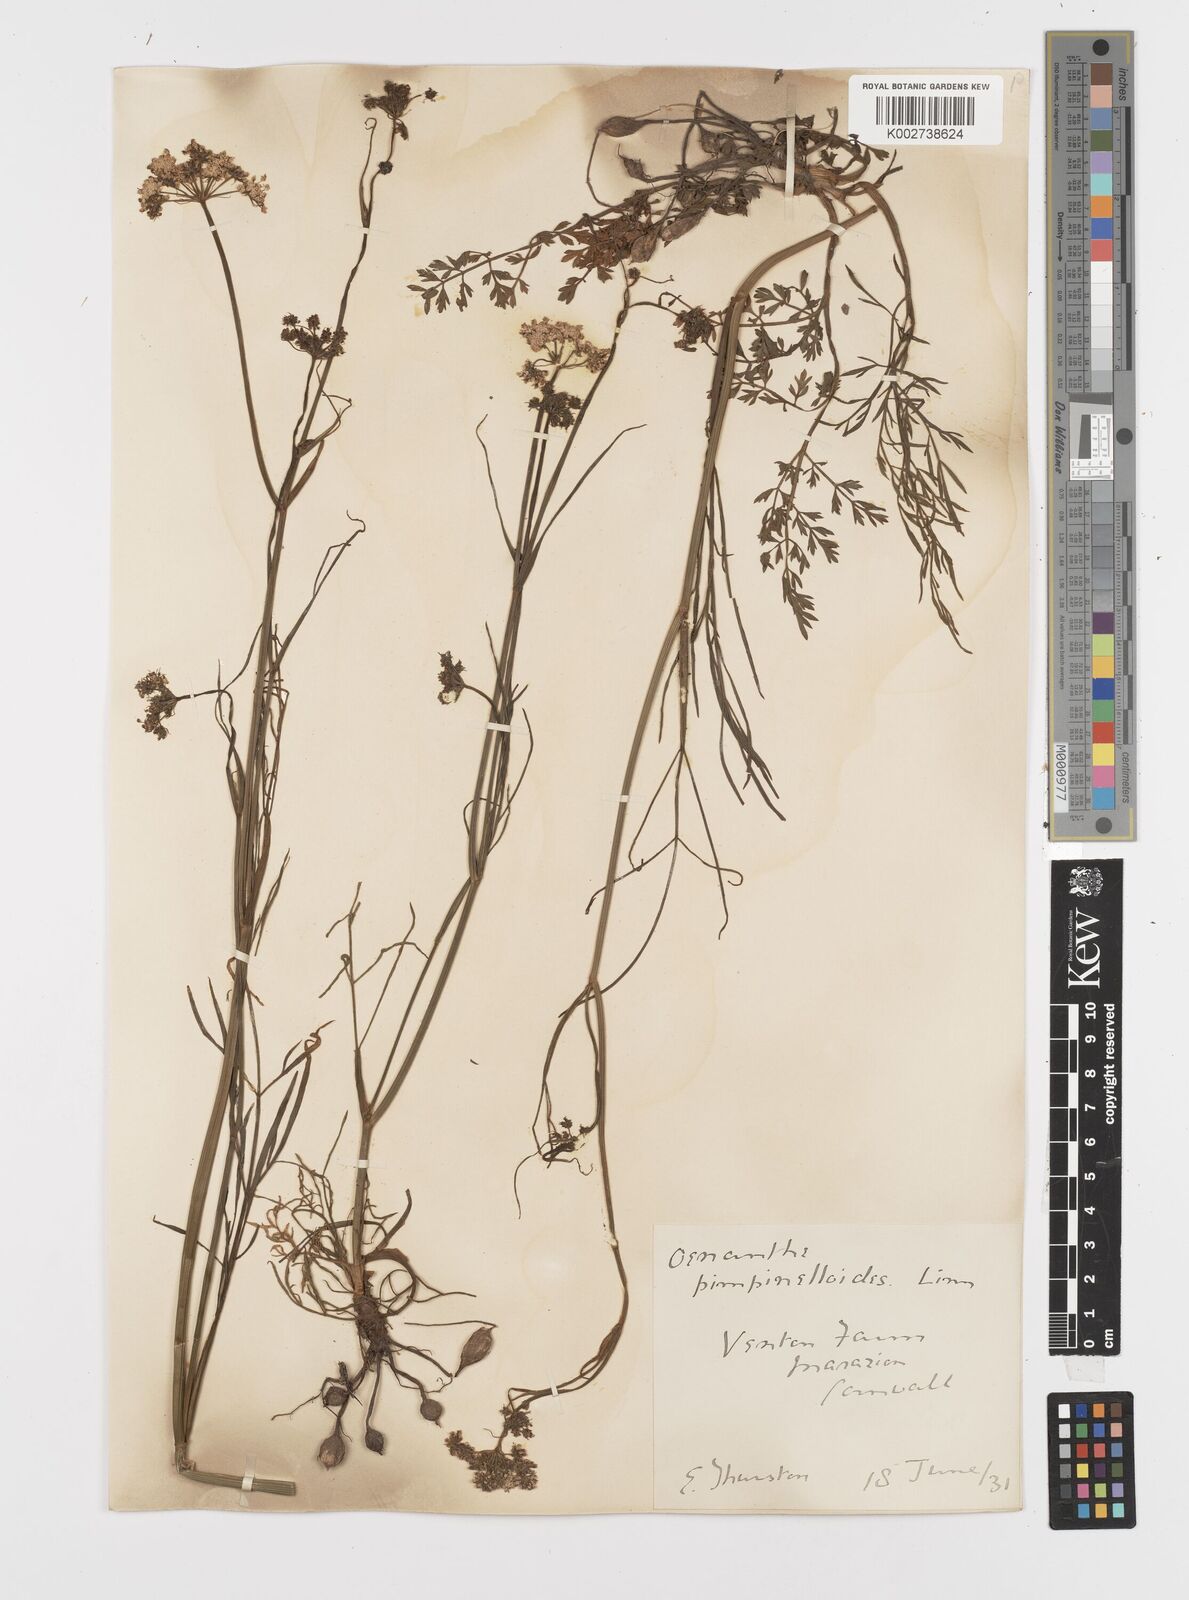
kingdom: Plantae
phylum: Tracheophyta
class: Magnoliopsida
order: Apiales
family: Apiaceae
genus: Oenanthe
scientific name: Oenanthe pimpinelloides
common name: Corky-fruited water-dropwort
